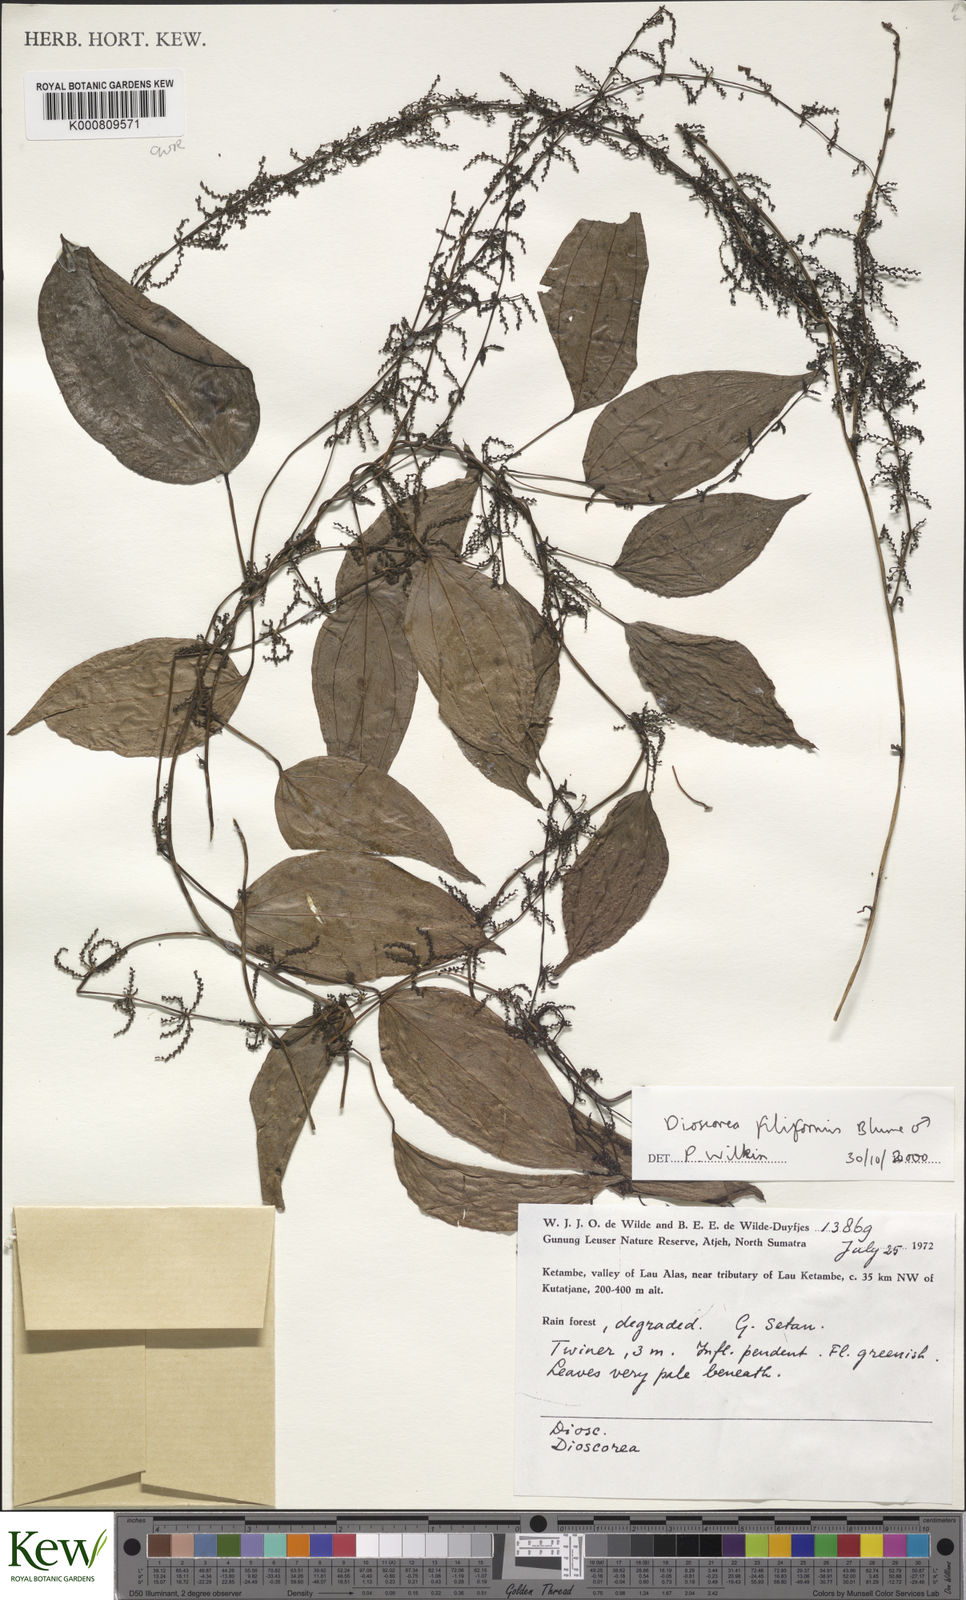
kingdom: Plantae
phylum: Tracheophyta
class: Liliopsida
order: Dioscoreales
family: Dioscoreaceae
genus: Dioscorea
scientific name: Dioscorea filiformis
